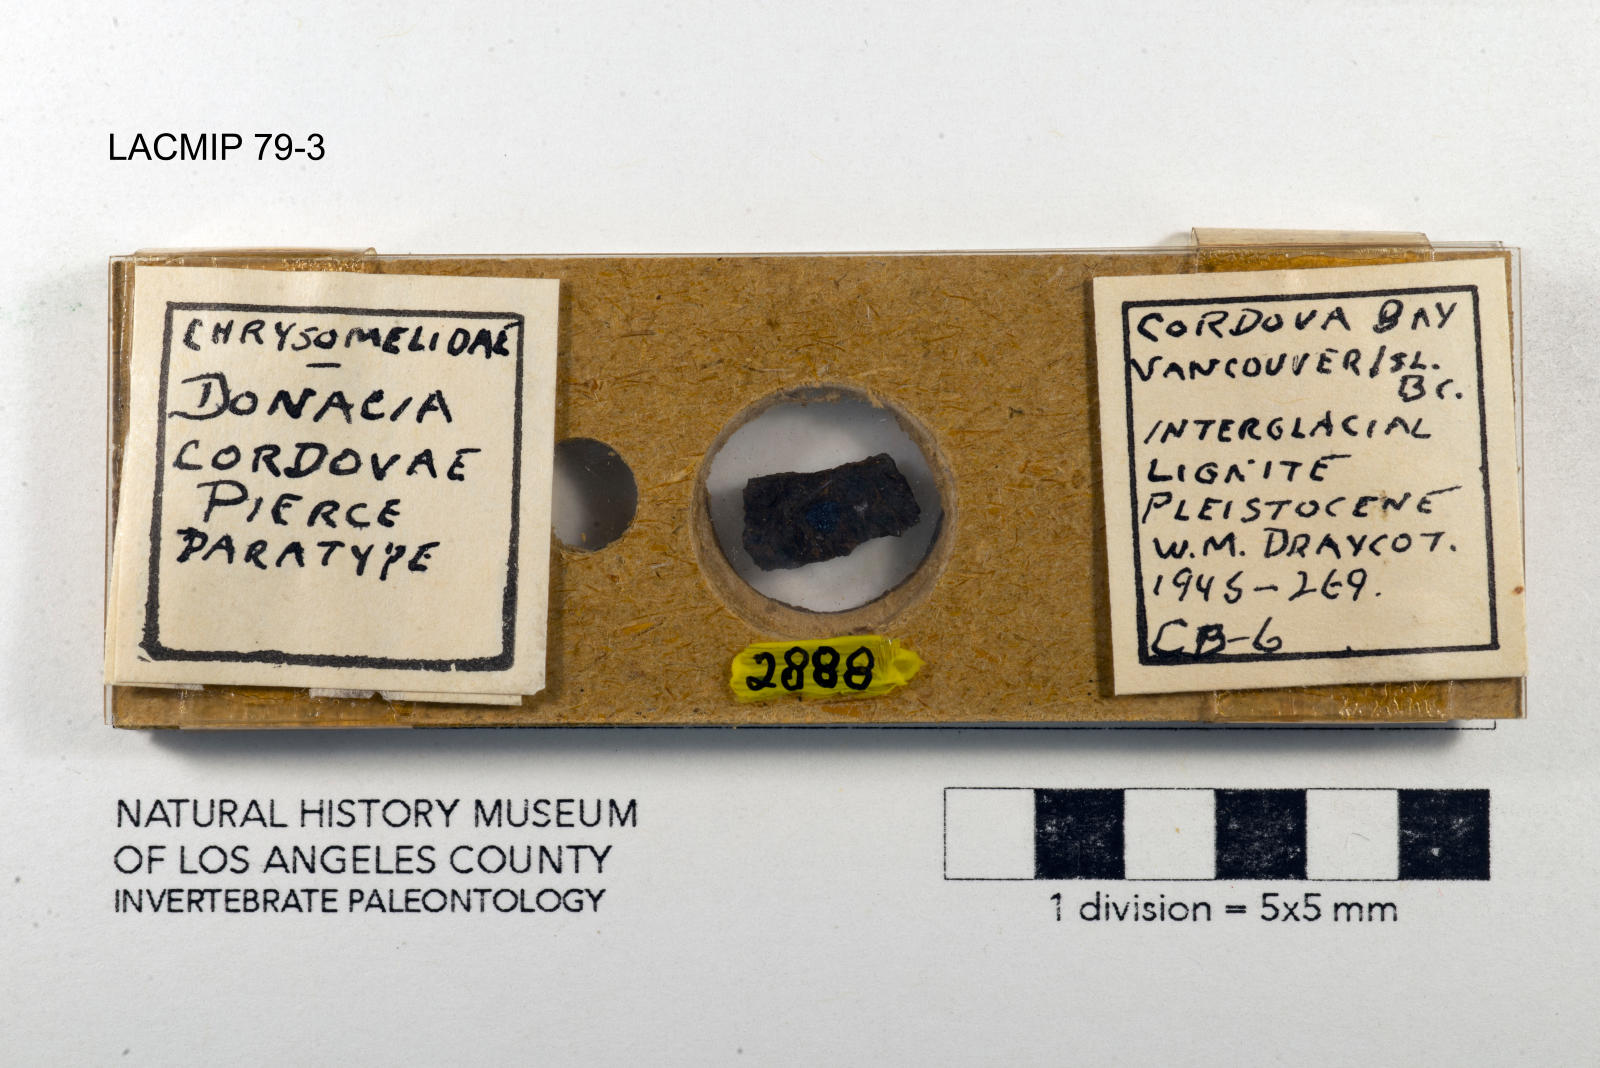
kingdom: Animalia
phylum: Arthropoda
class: Insecta
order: Coleoptera
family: Chrysomelidae
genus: Donacia
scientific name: Donacia cordovae
